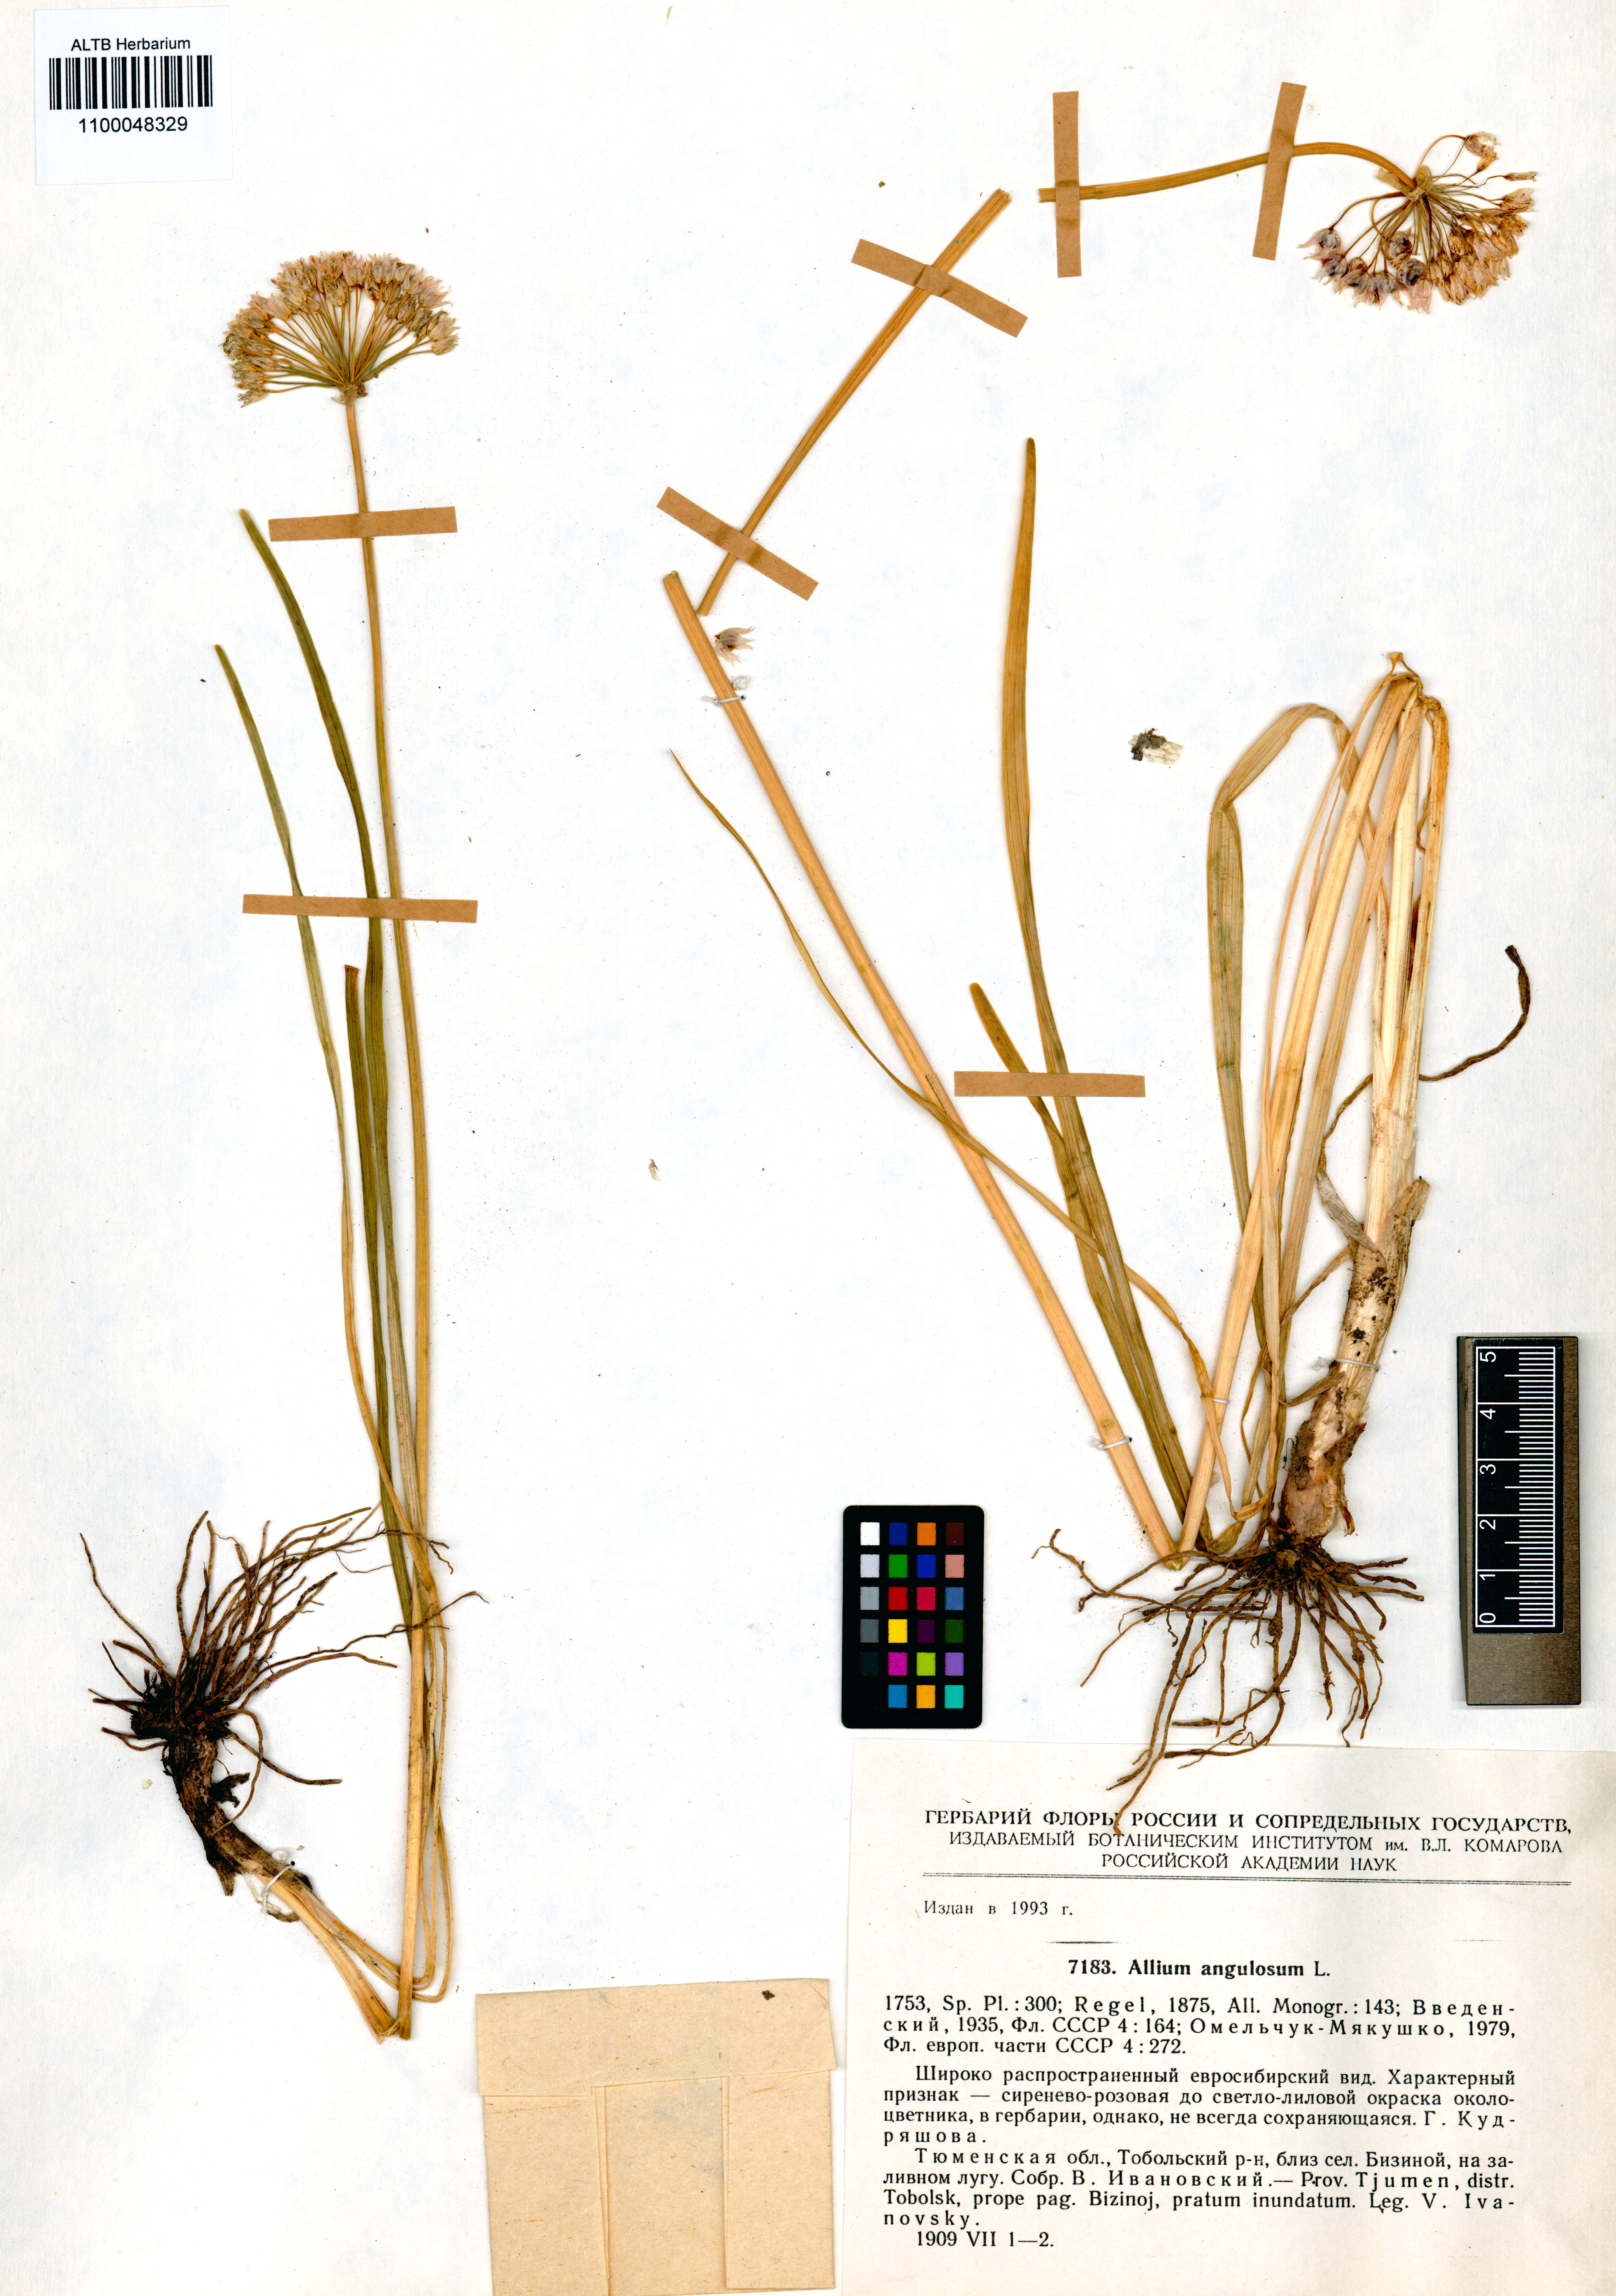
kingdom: Plantae
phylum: Tracheophyta
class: Liliopsida
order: Asparagales
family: Amaryllidaceae
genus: Allium
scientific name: Allium angulosum
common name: Mouse garlic
